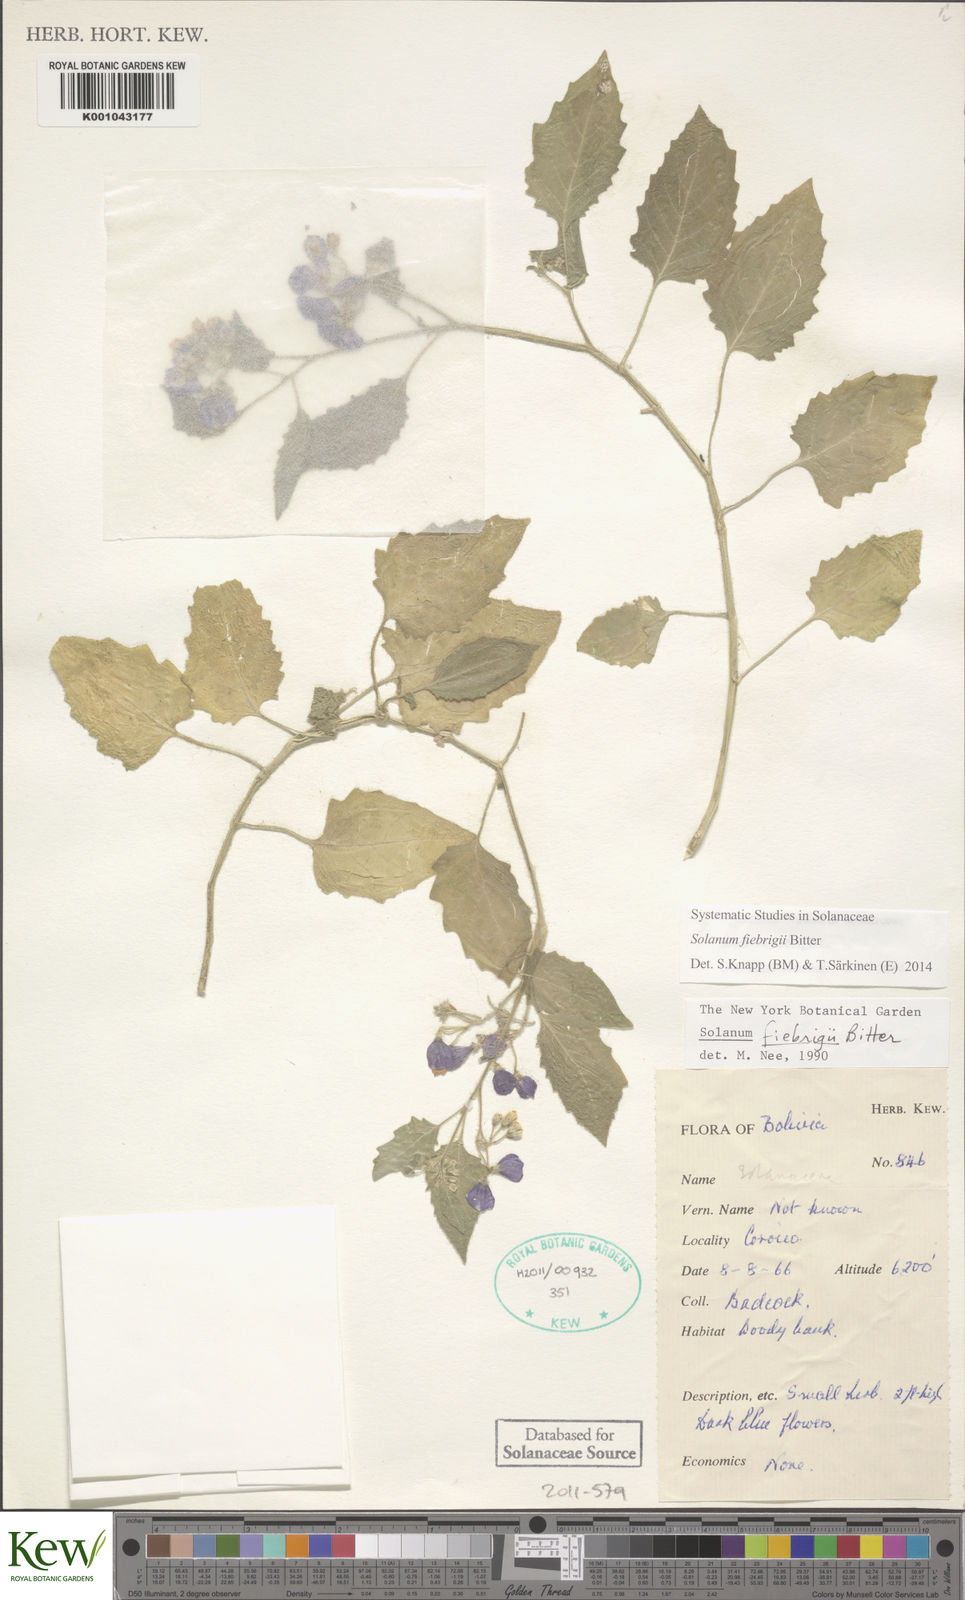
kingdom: Plantae
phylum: Tracheophyta
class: Magnoliopsida
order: Solanales
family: Solanaceae
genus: Solanum
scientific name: Solanum fiebrigii
